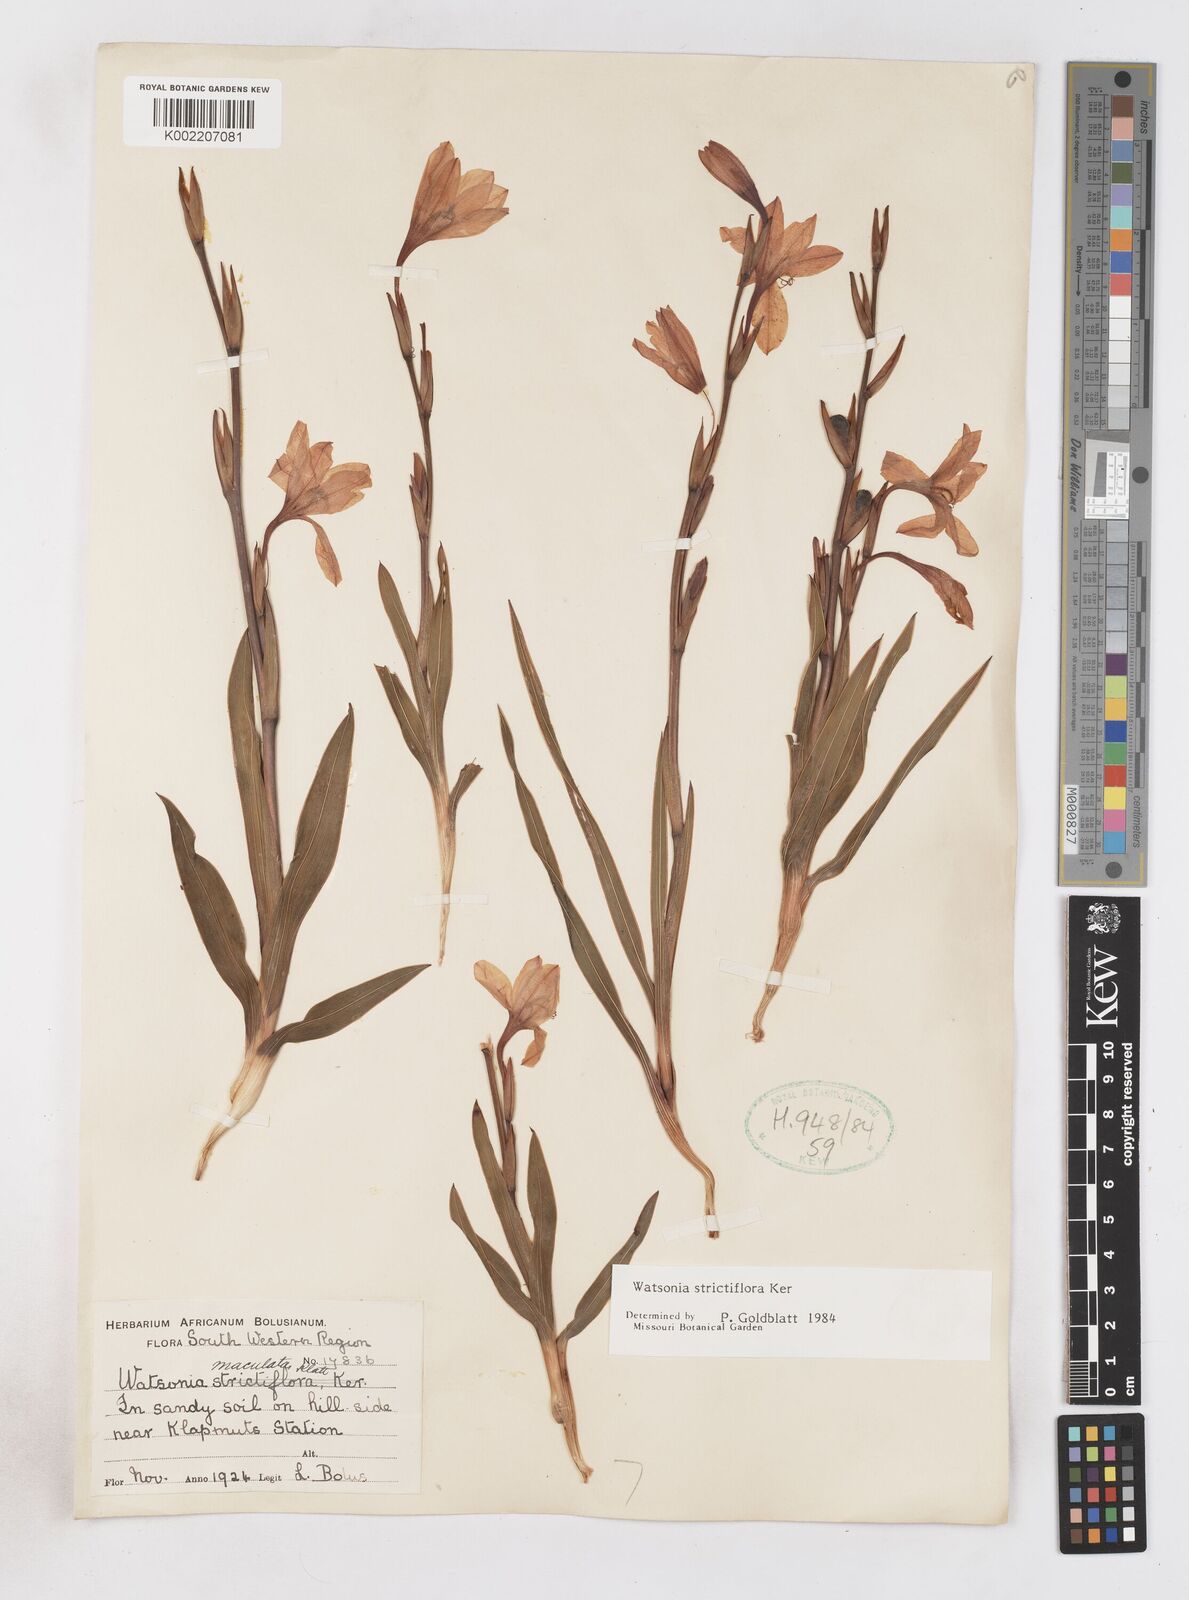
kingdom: Plantae
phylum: Tracheophyta
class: Liliopsida
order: Asparagales
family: Iridaceae
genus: Watsonia
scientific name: Watsonia strictiflora
